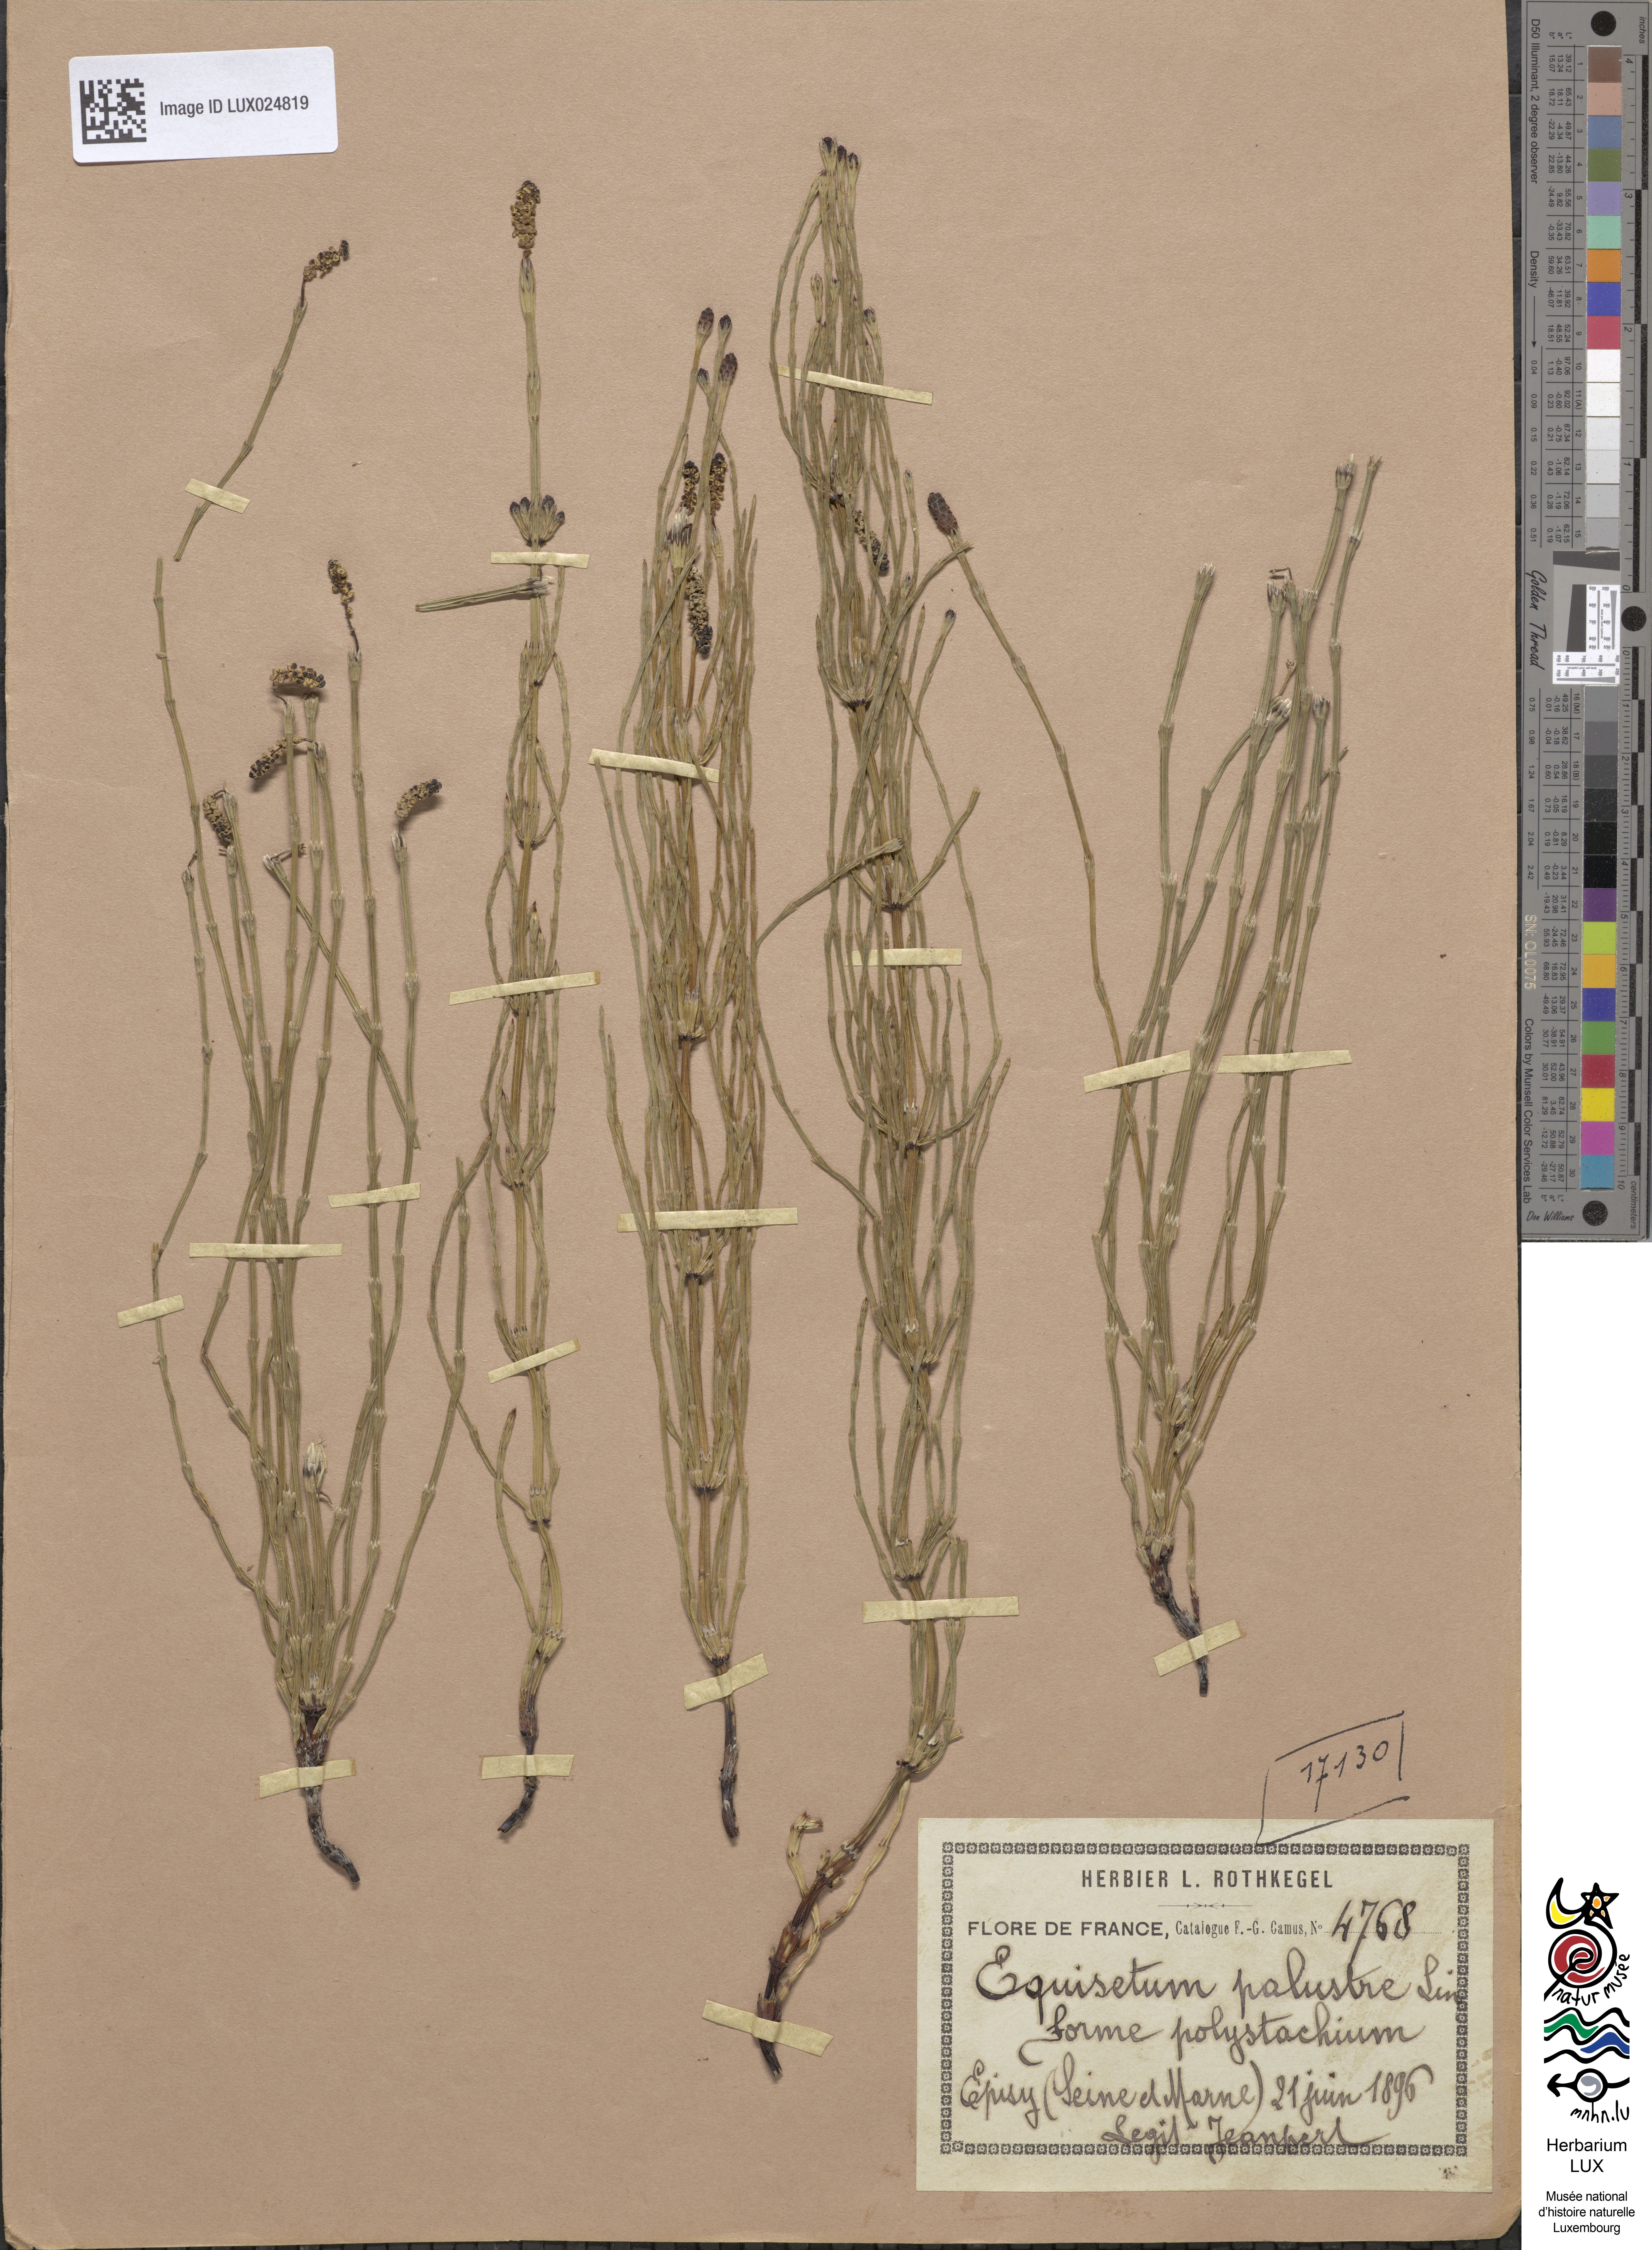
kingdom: Plantae
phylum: Tracheophyta
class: Polypodiopsida
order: Equisetales
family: Equisetaceae
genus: Equisetum
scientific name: Equisetum palustre
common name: Marsh horsetail
